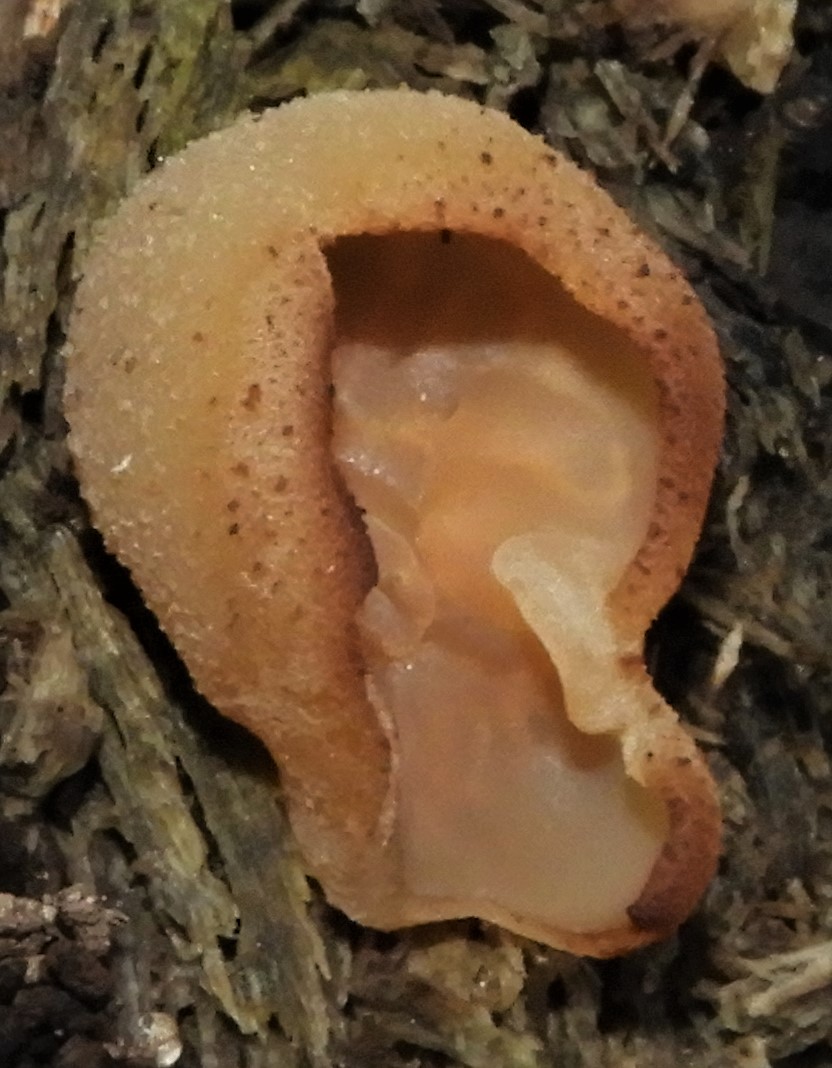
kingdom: Fungi
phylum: Ascomycota
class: Pezizomycetes
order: Pezizales
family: Pezizaceae
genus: Peziza
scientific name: Peziza varia
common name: Ved-bægersvamp
